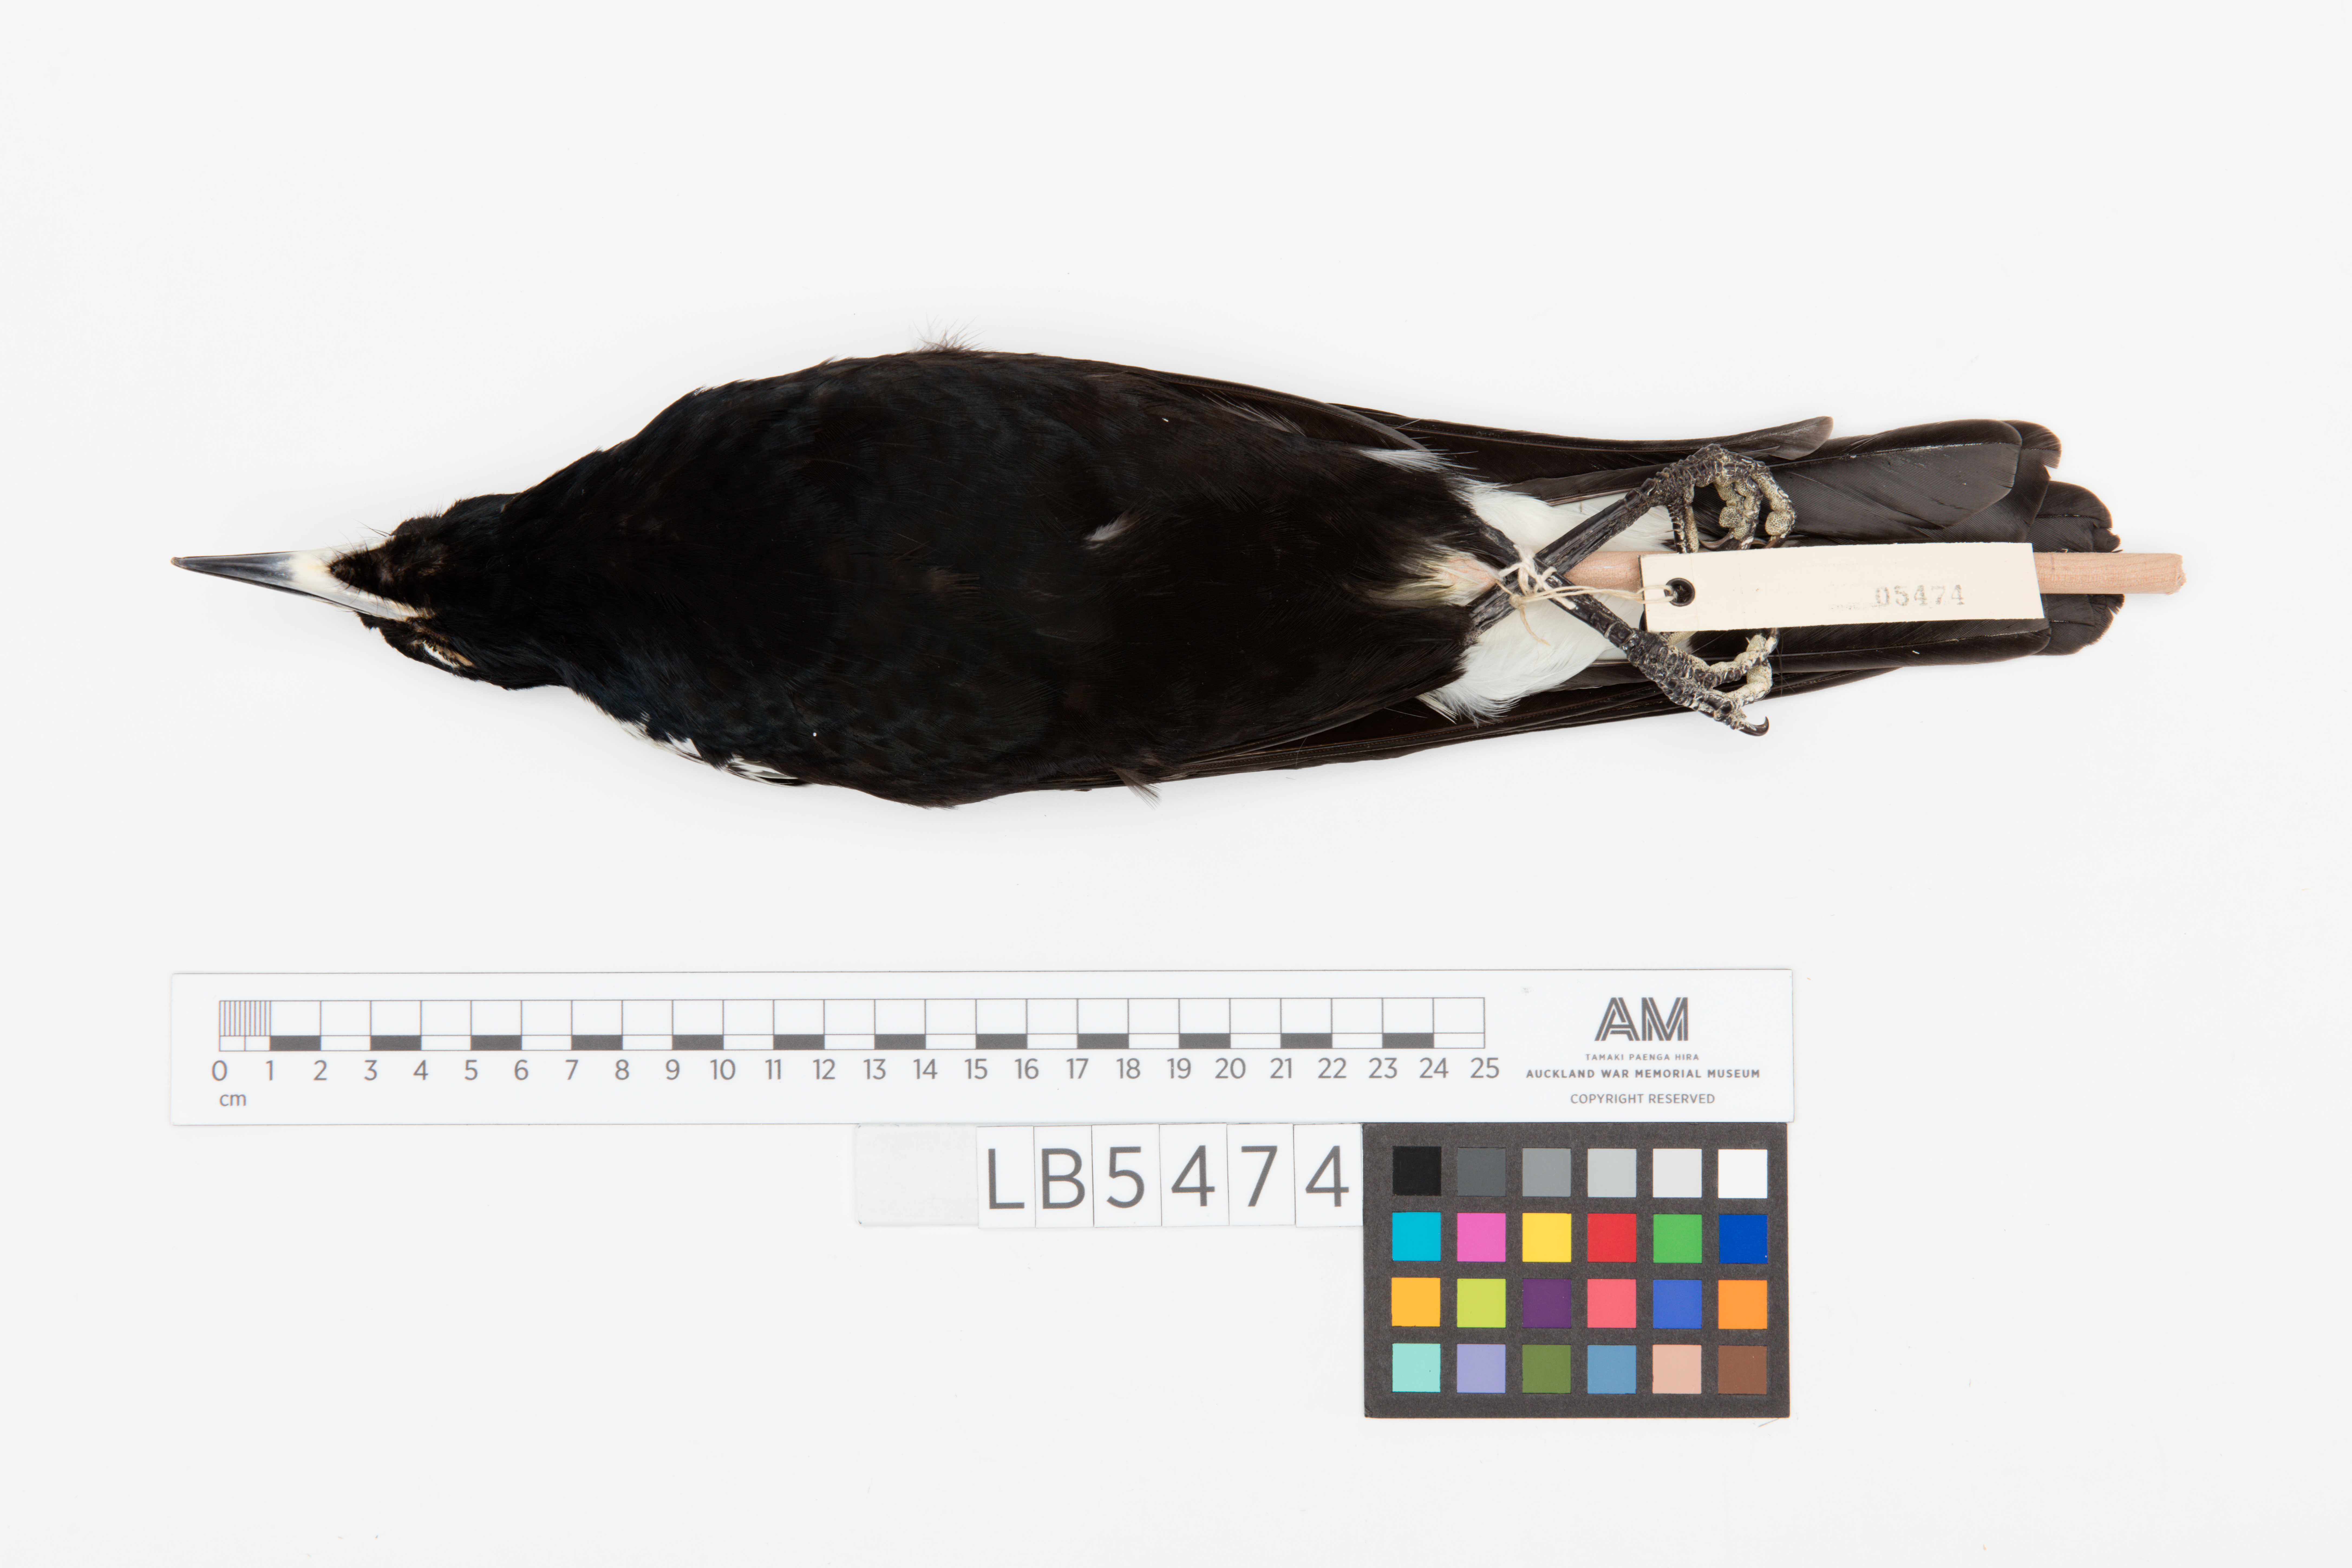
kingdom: Animalia
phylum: Chordata
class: Aves
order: Passeriformes
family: Cracticidae
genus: Gymnorhina
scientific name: Gymnorhina tibicen
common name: Australian magpie
